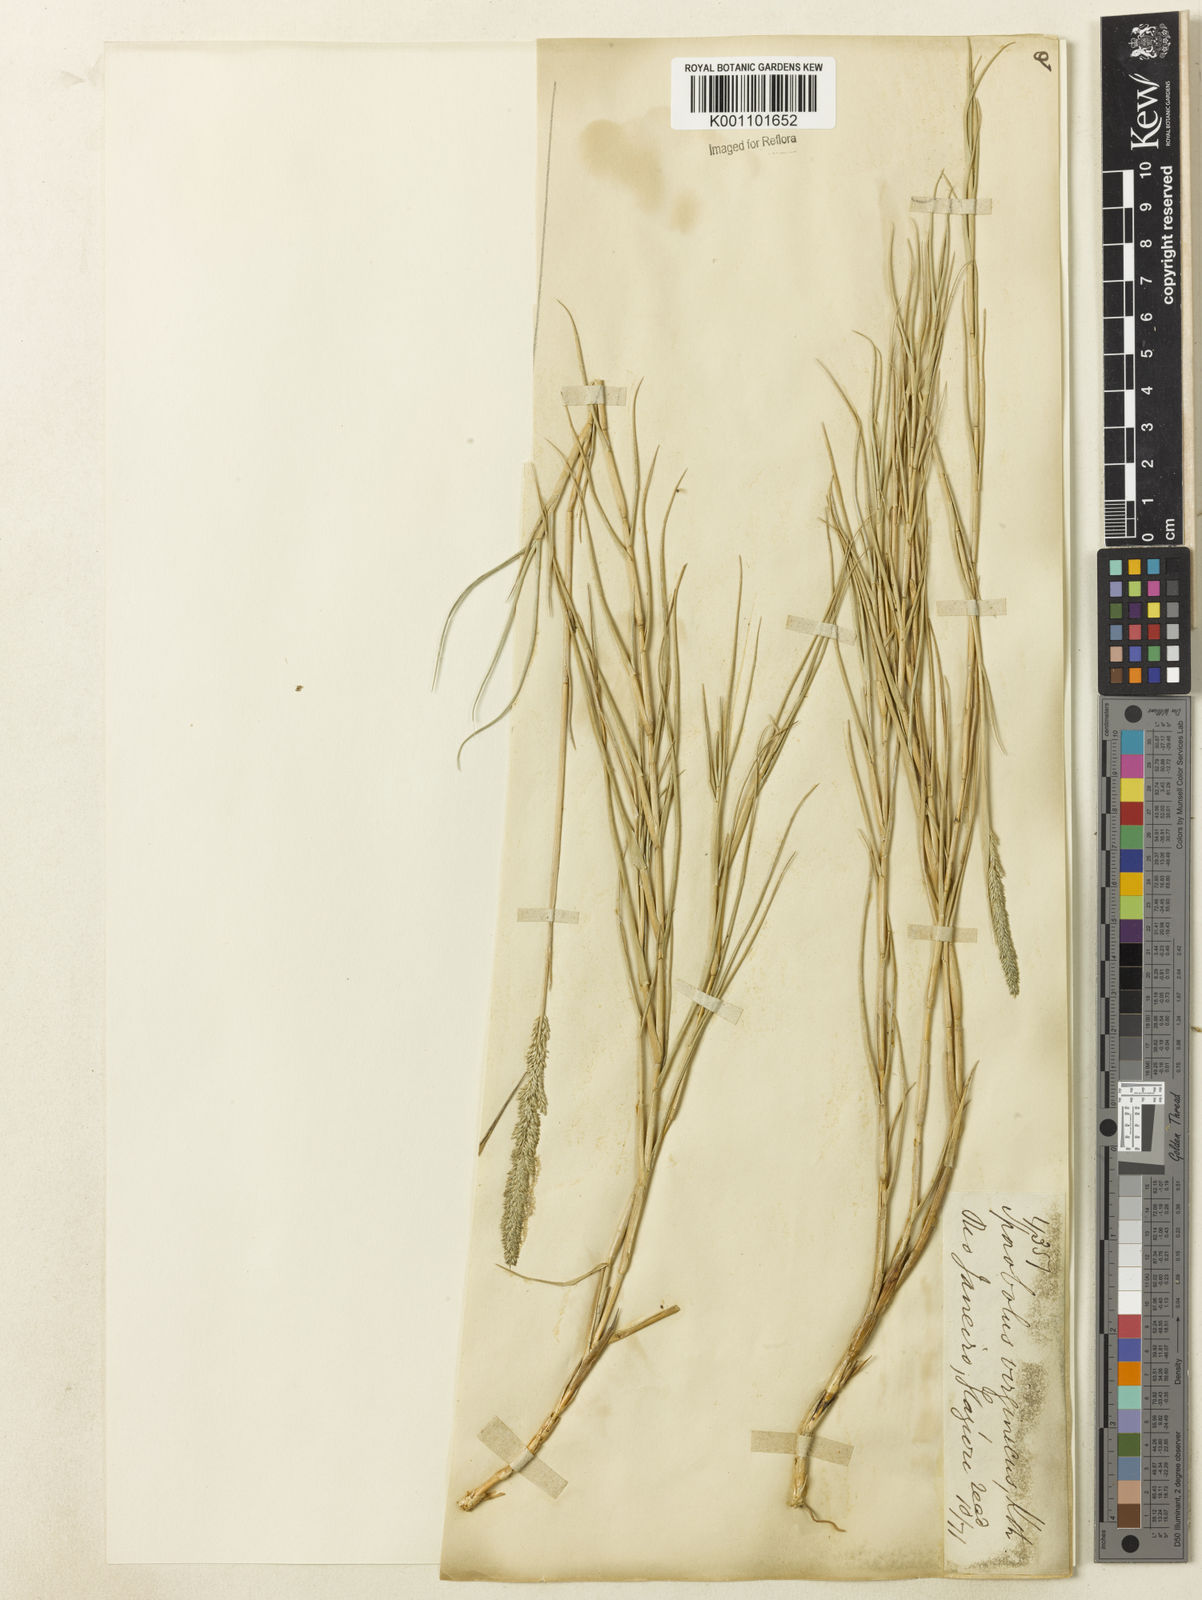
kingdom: Plantae
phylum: Tracheophyta
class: Liliopsida
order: Poales
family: Poaceae
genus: Sporobolus
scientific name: Sporobolus virginicus
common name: Beach dropseed
